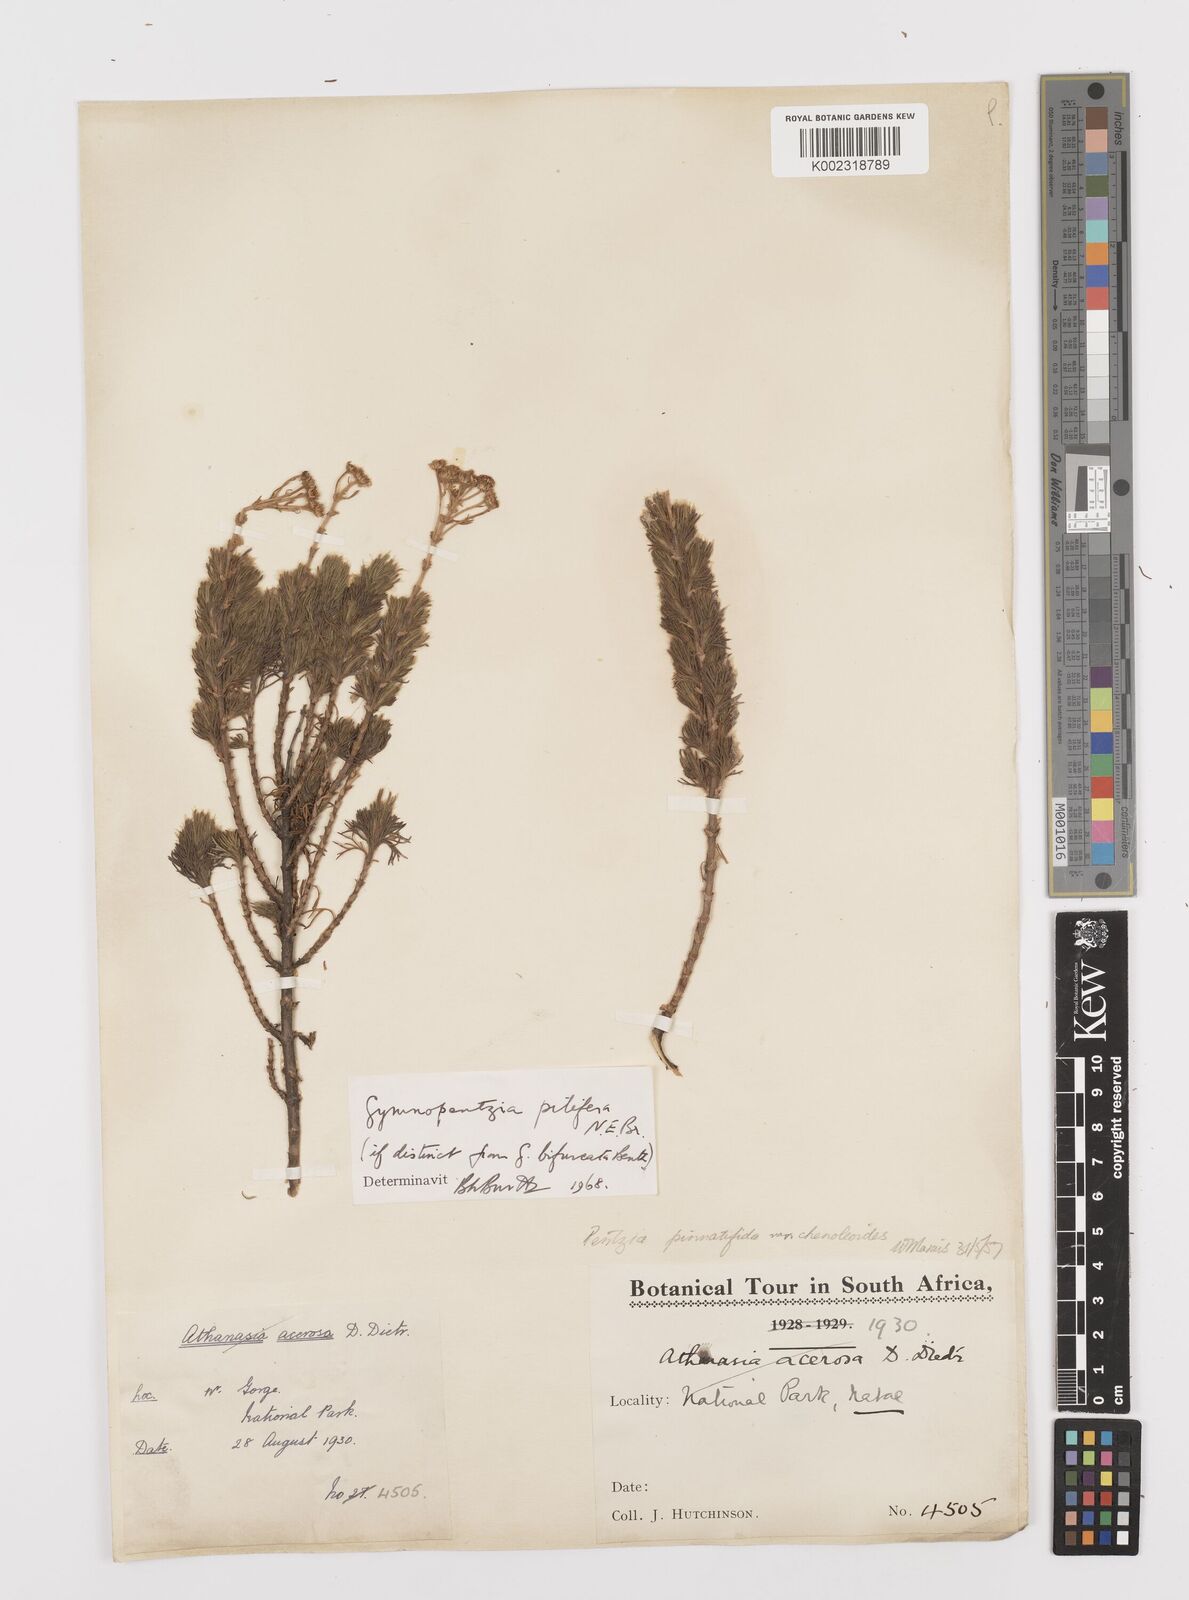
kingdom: Plantae
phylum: Tracheophyta
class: Magnoliopsida
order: Asterales
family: Asteraceae
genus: Gymnopentzia
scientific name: Gymnopentzia bifurcata
